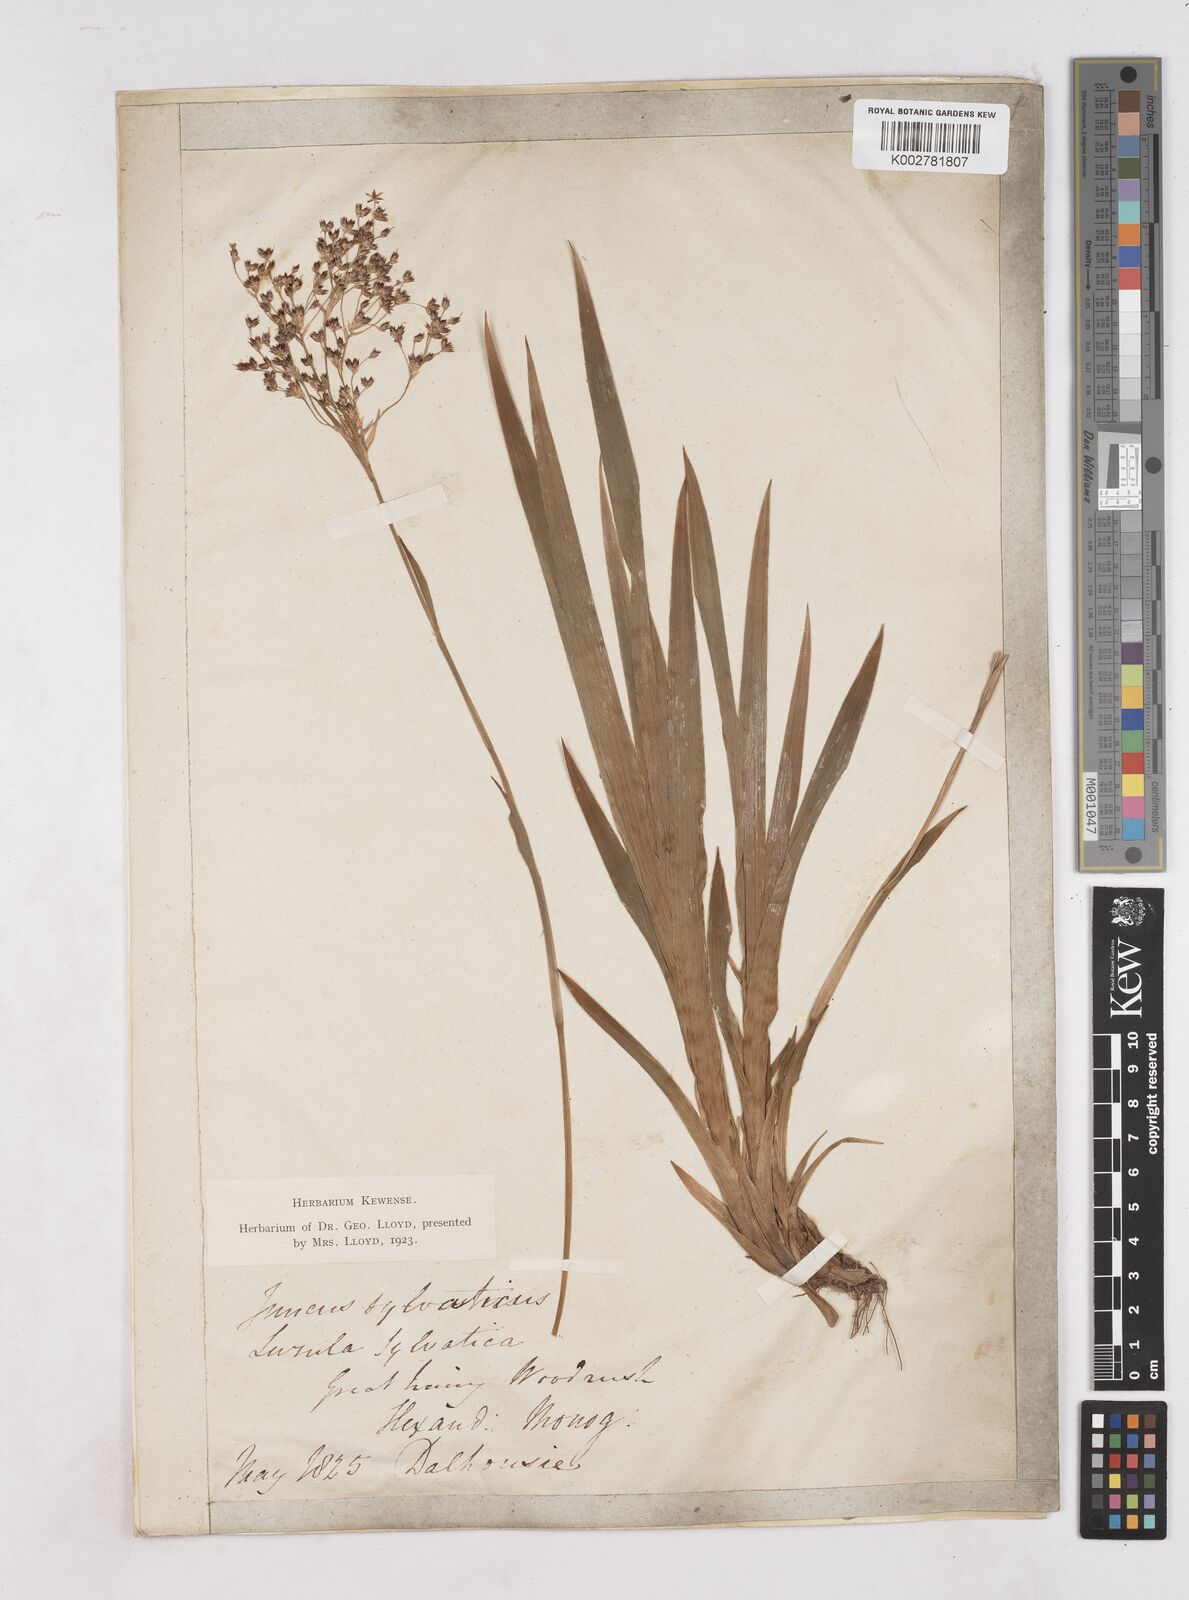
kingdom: Plantae
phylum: Tracheophyta
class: Liliopsida
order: Poales
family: Juncaceae
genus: Luzula
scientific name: Luzula sylvatica
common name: Great wood-rush
